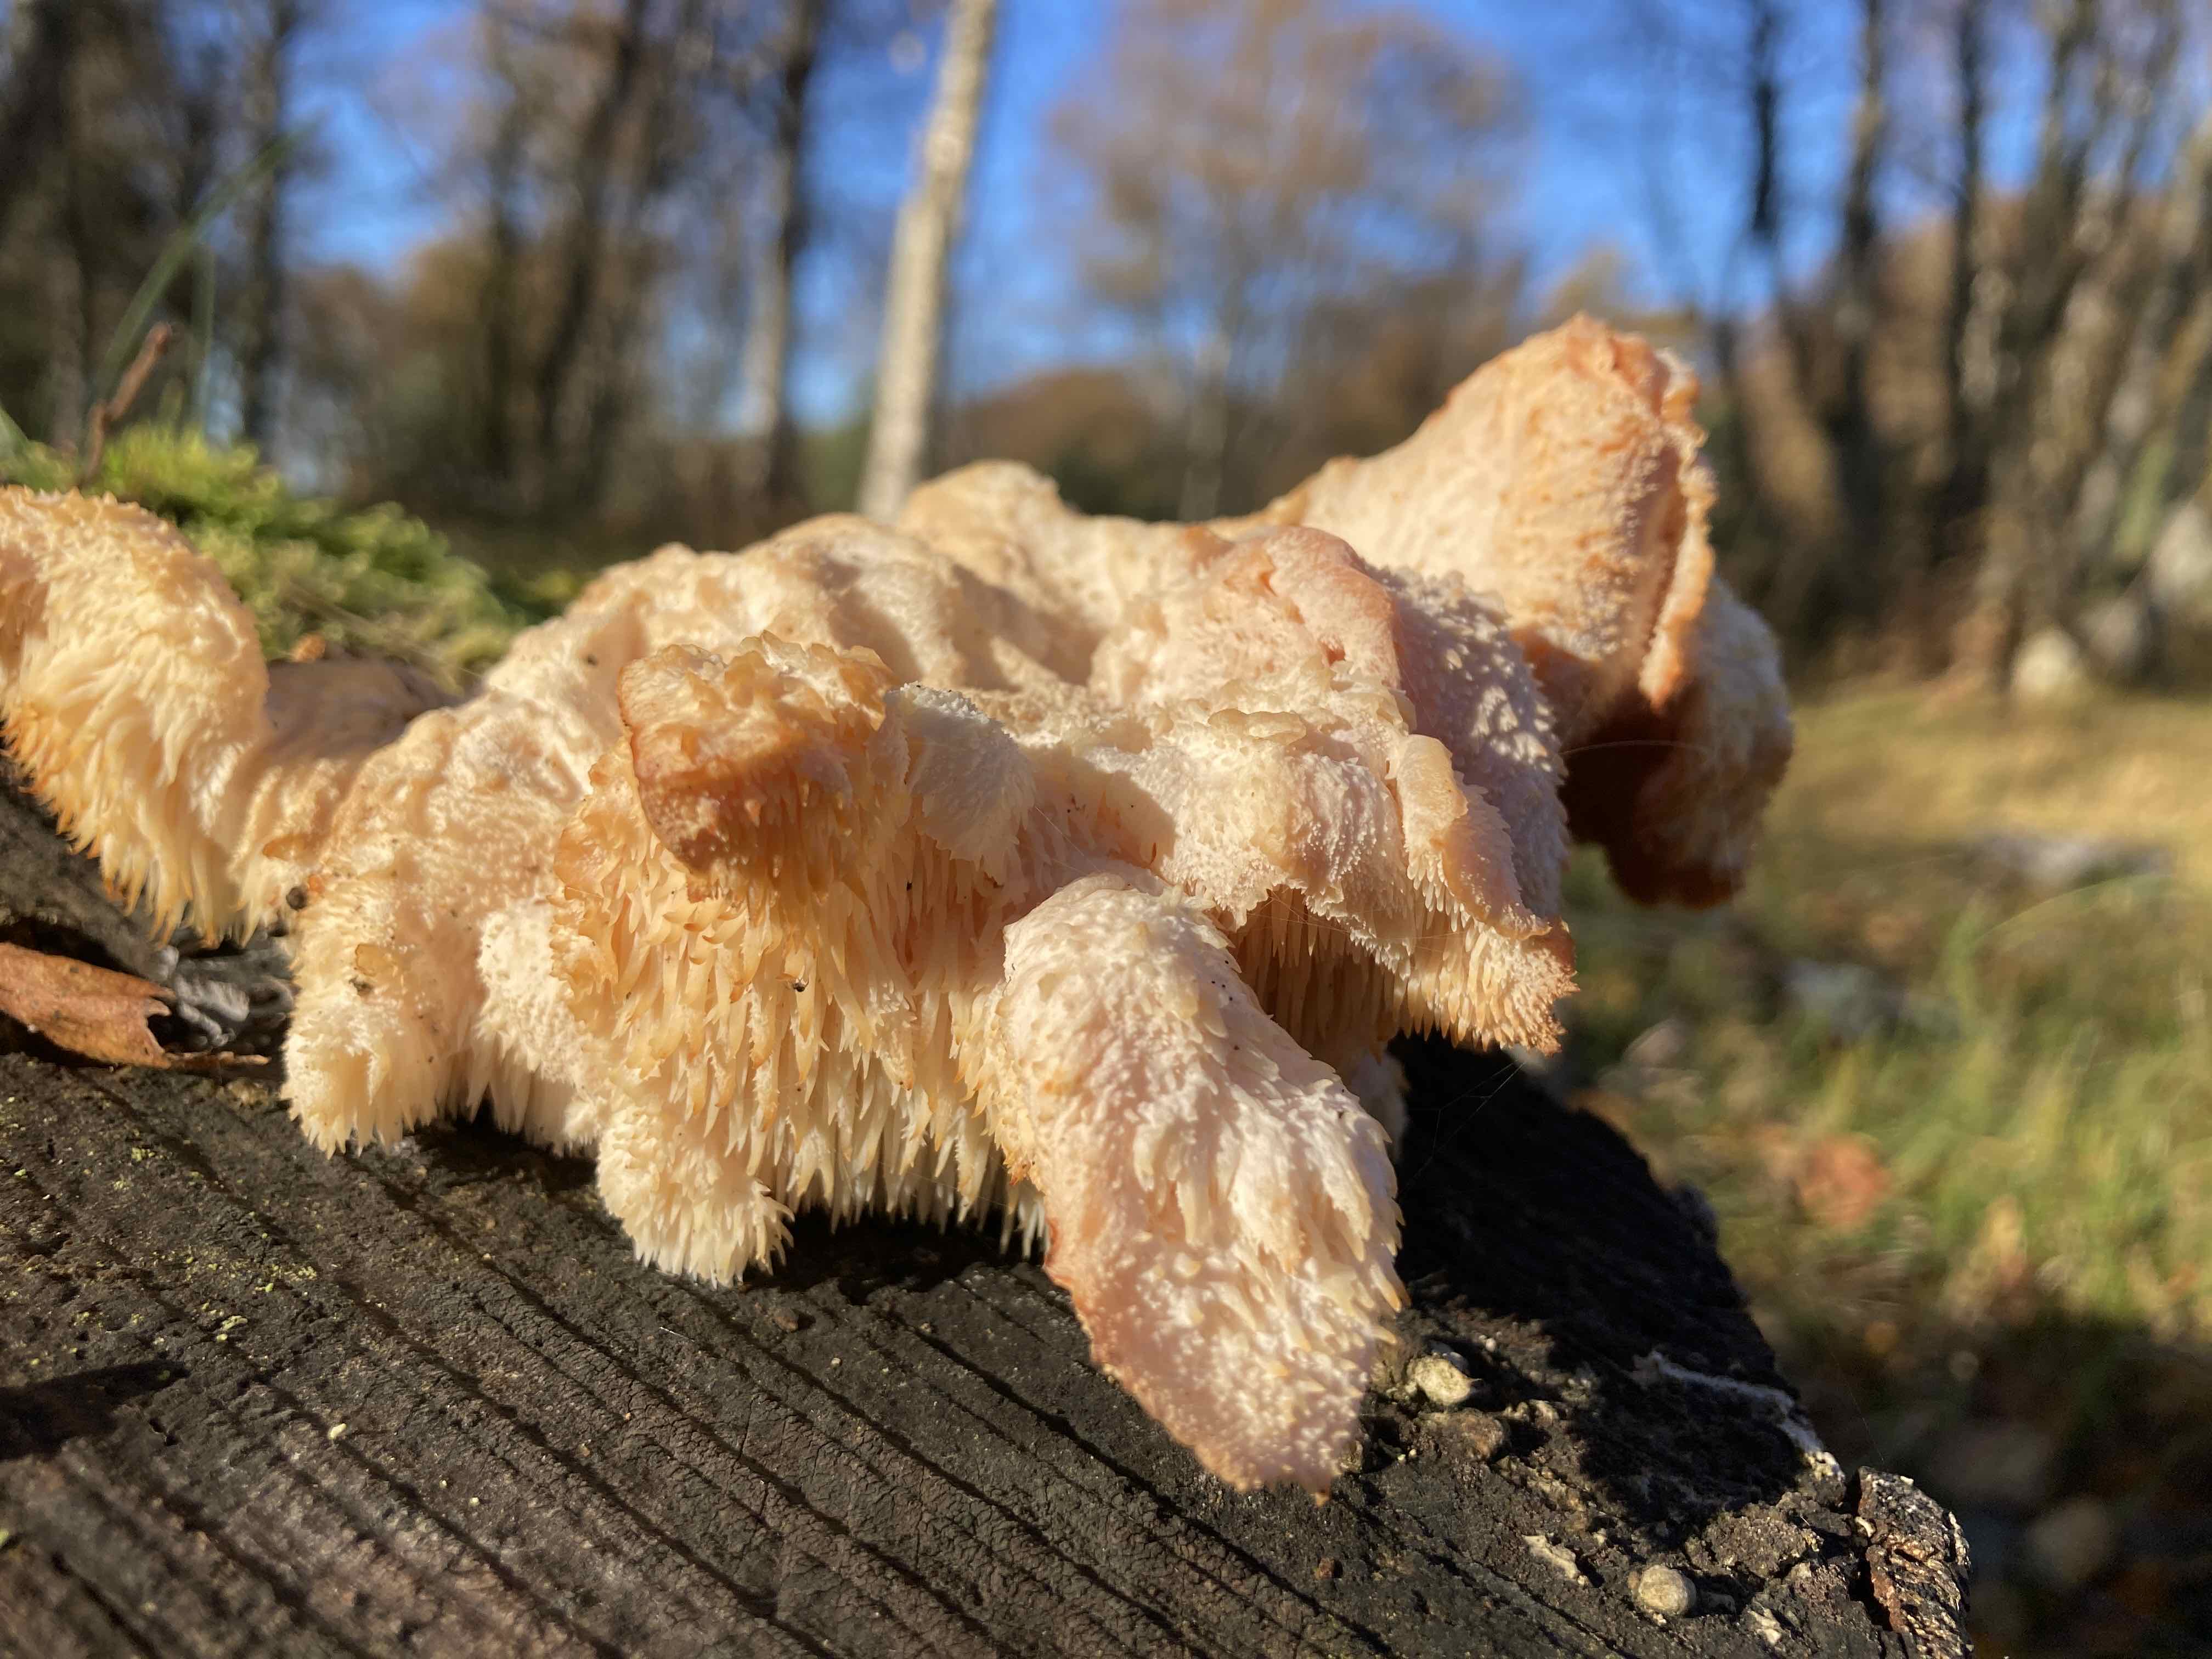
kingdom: Fungi
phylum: Basidiomycota
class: Agaricomycetes
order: Russulales
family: Hericiaceae
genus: Hericium
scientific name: Hericium cirrhatum
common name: børstepigsvamp
